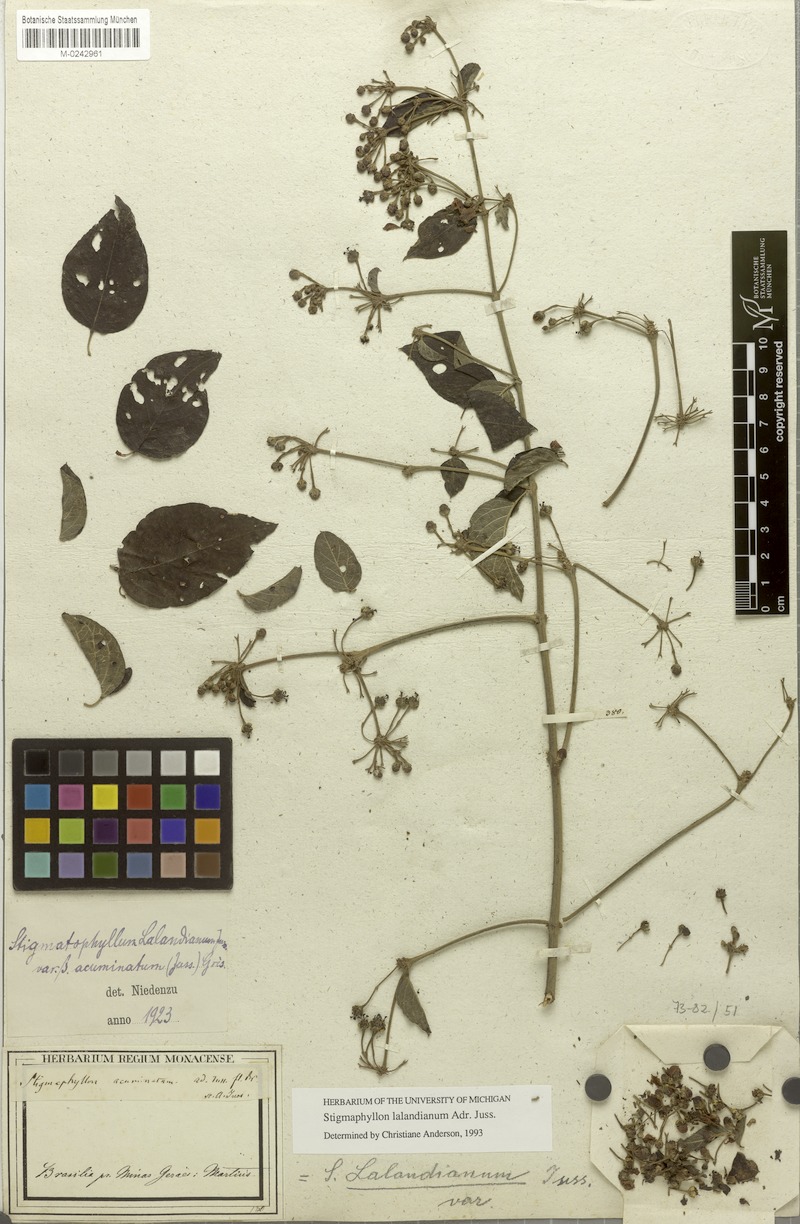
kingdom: Plantae
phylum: Tracheophyta
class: Magnoliopsida
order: Malpighiales
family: Malpighiaceae
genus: Stigmaphyllon
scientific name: Stigmaphyllon lalandianum
